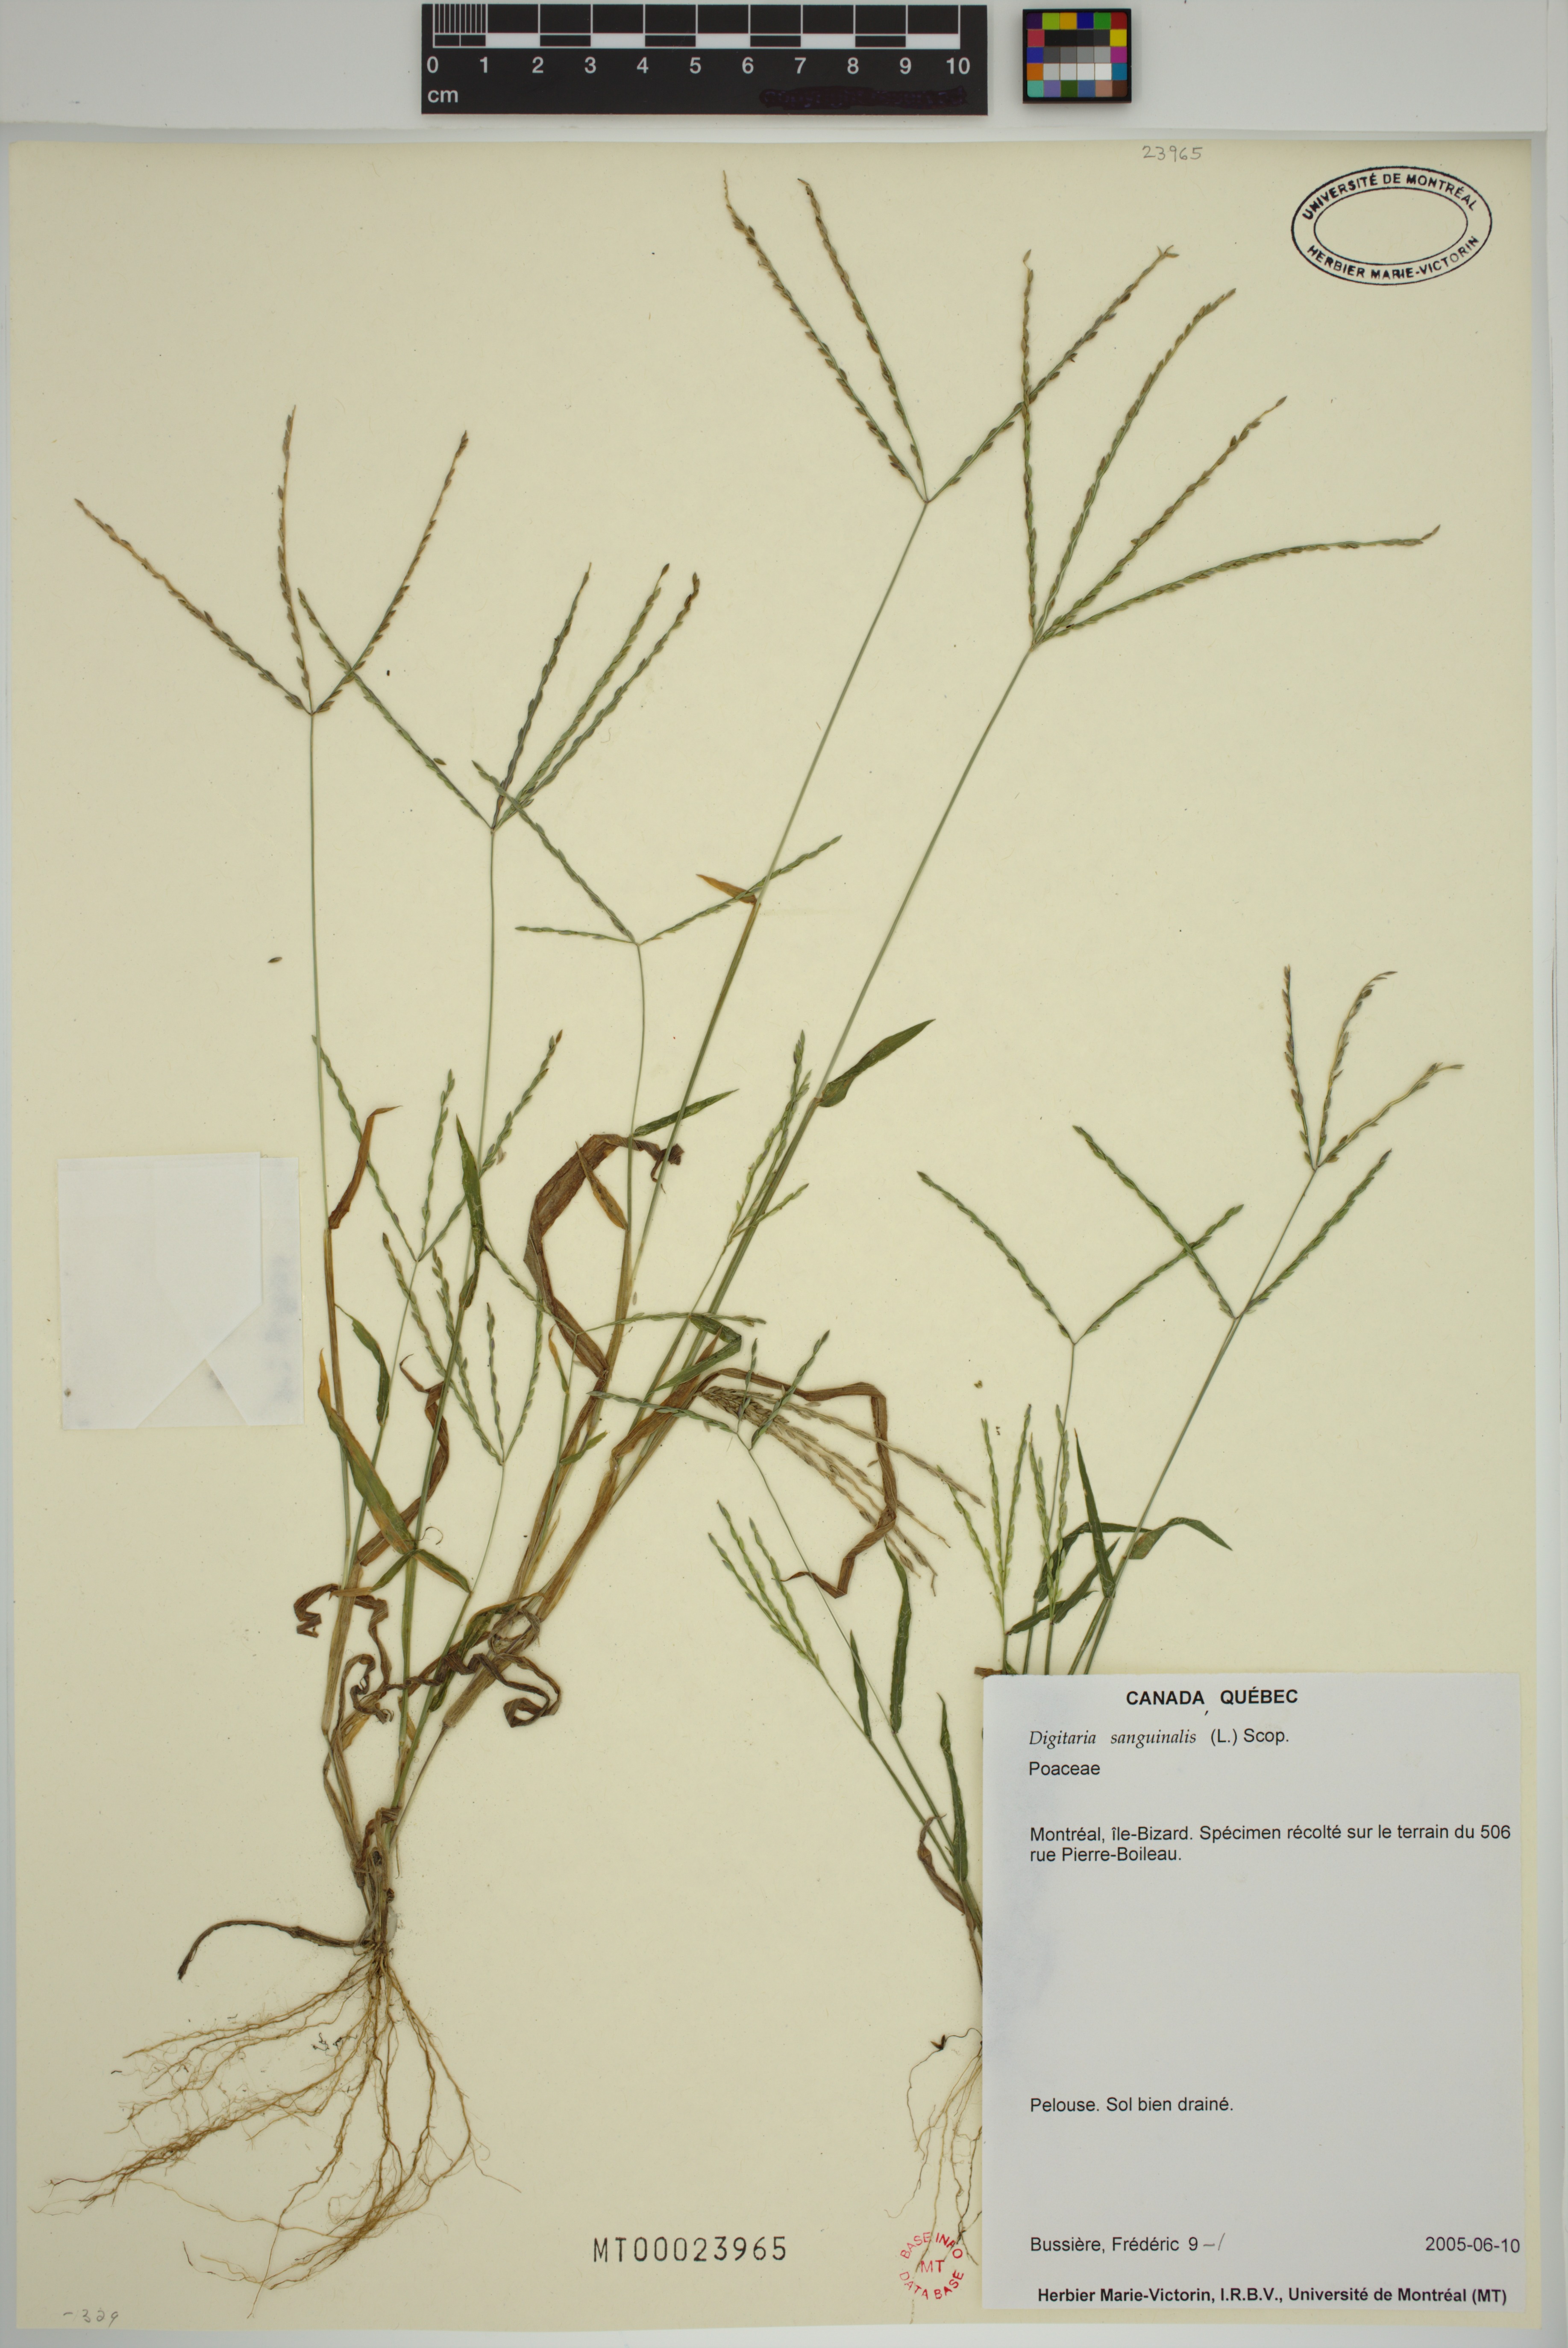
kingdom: Plantae
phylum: Tracheophyta
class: Liliopsida
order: Poales
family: Poaceae
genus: Digitaria
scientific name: Digitaria sanguinalis
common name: Hairy crabgrass
